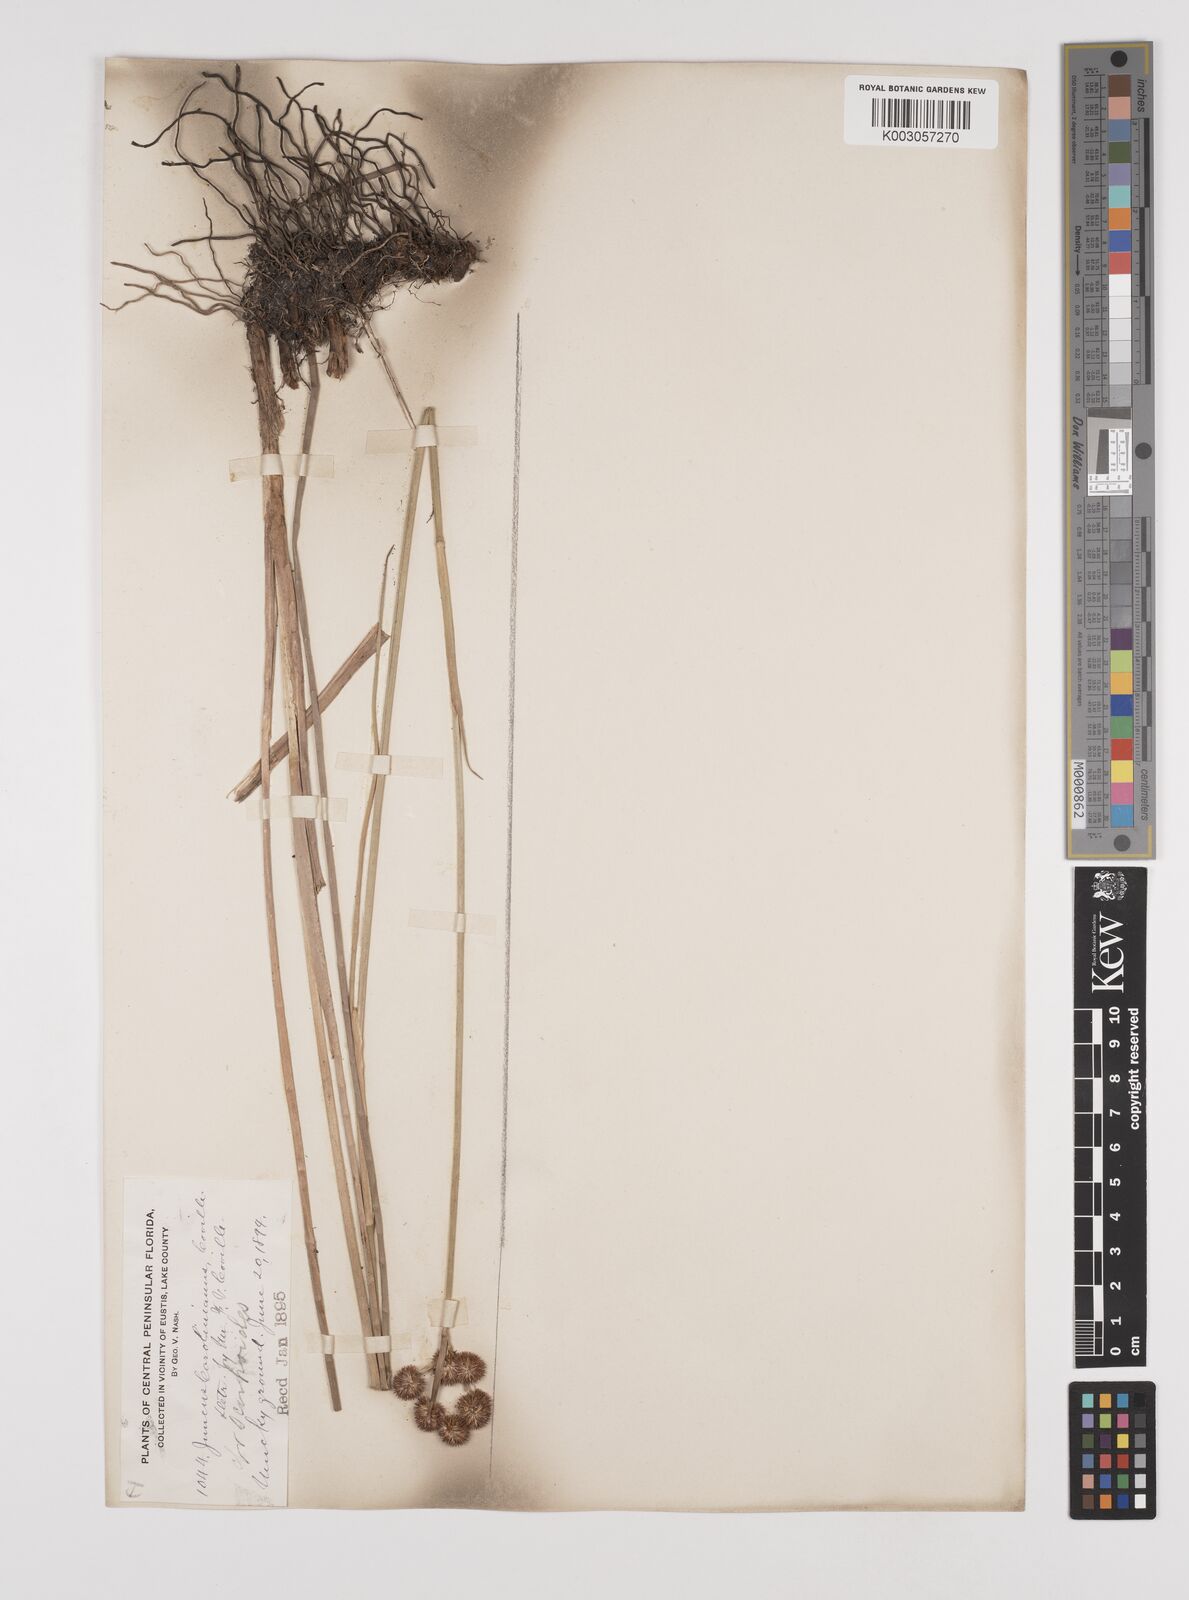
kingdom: Plantae
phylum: Tracheophyta
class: Liliopsida
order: Poales
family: Juncaceae
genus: Juncus
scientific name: Juncus xiphioides
